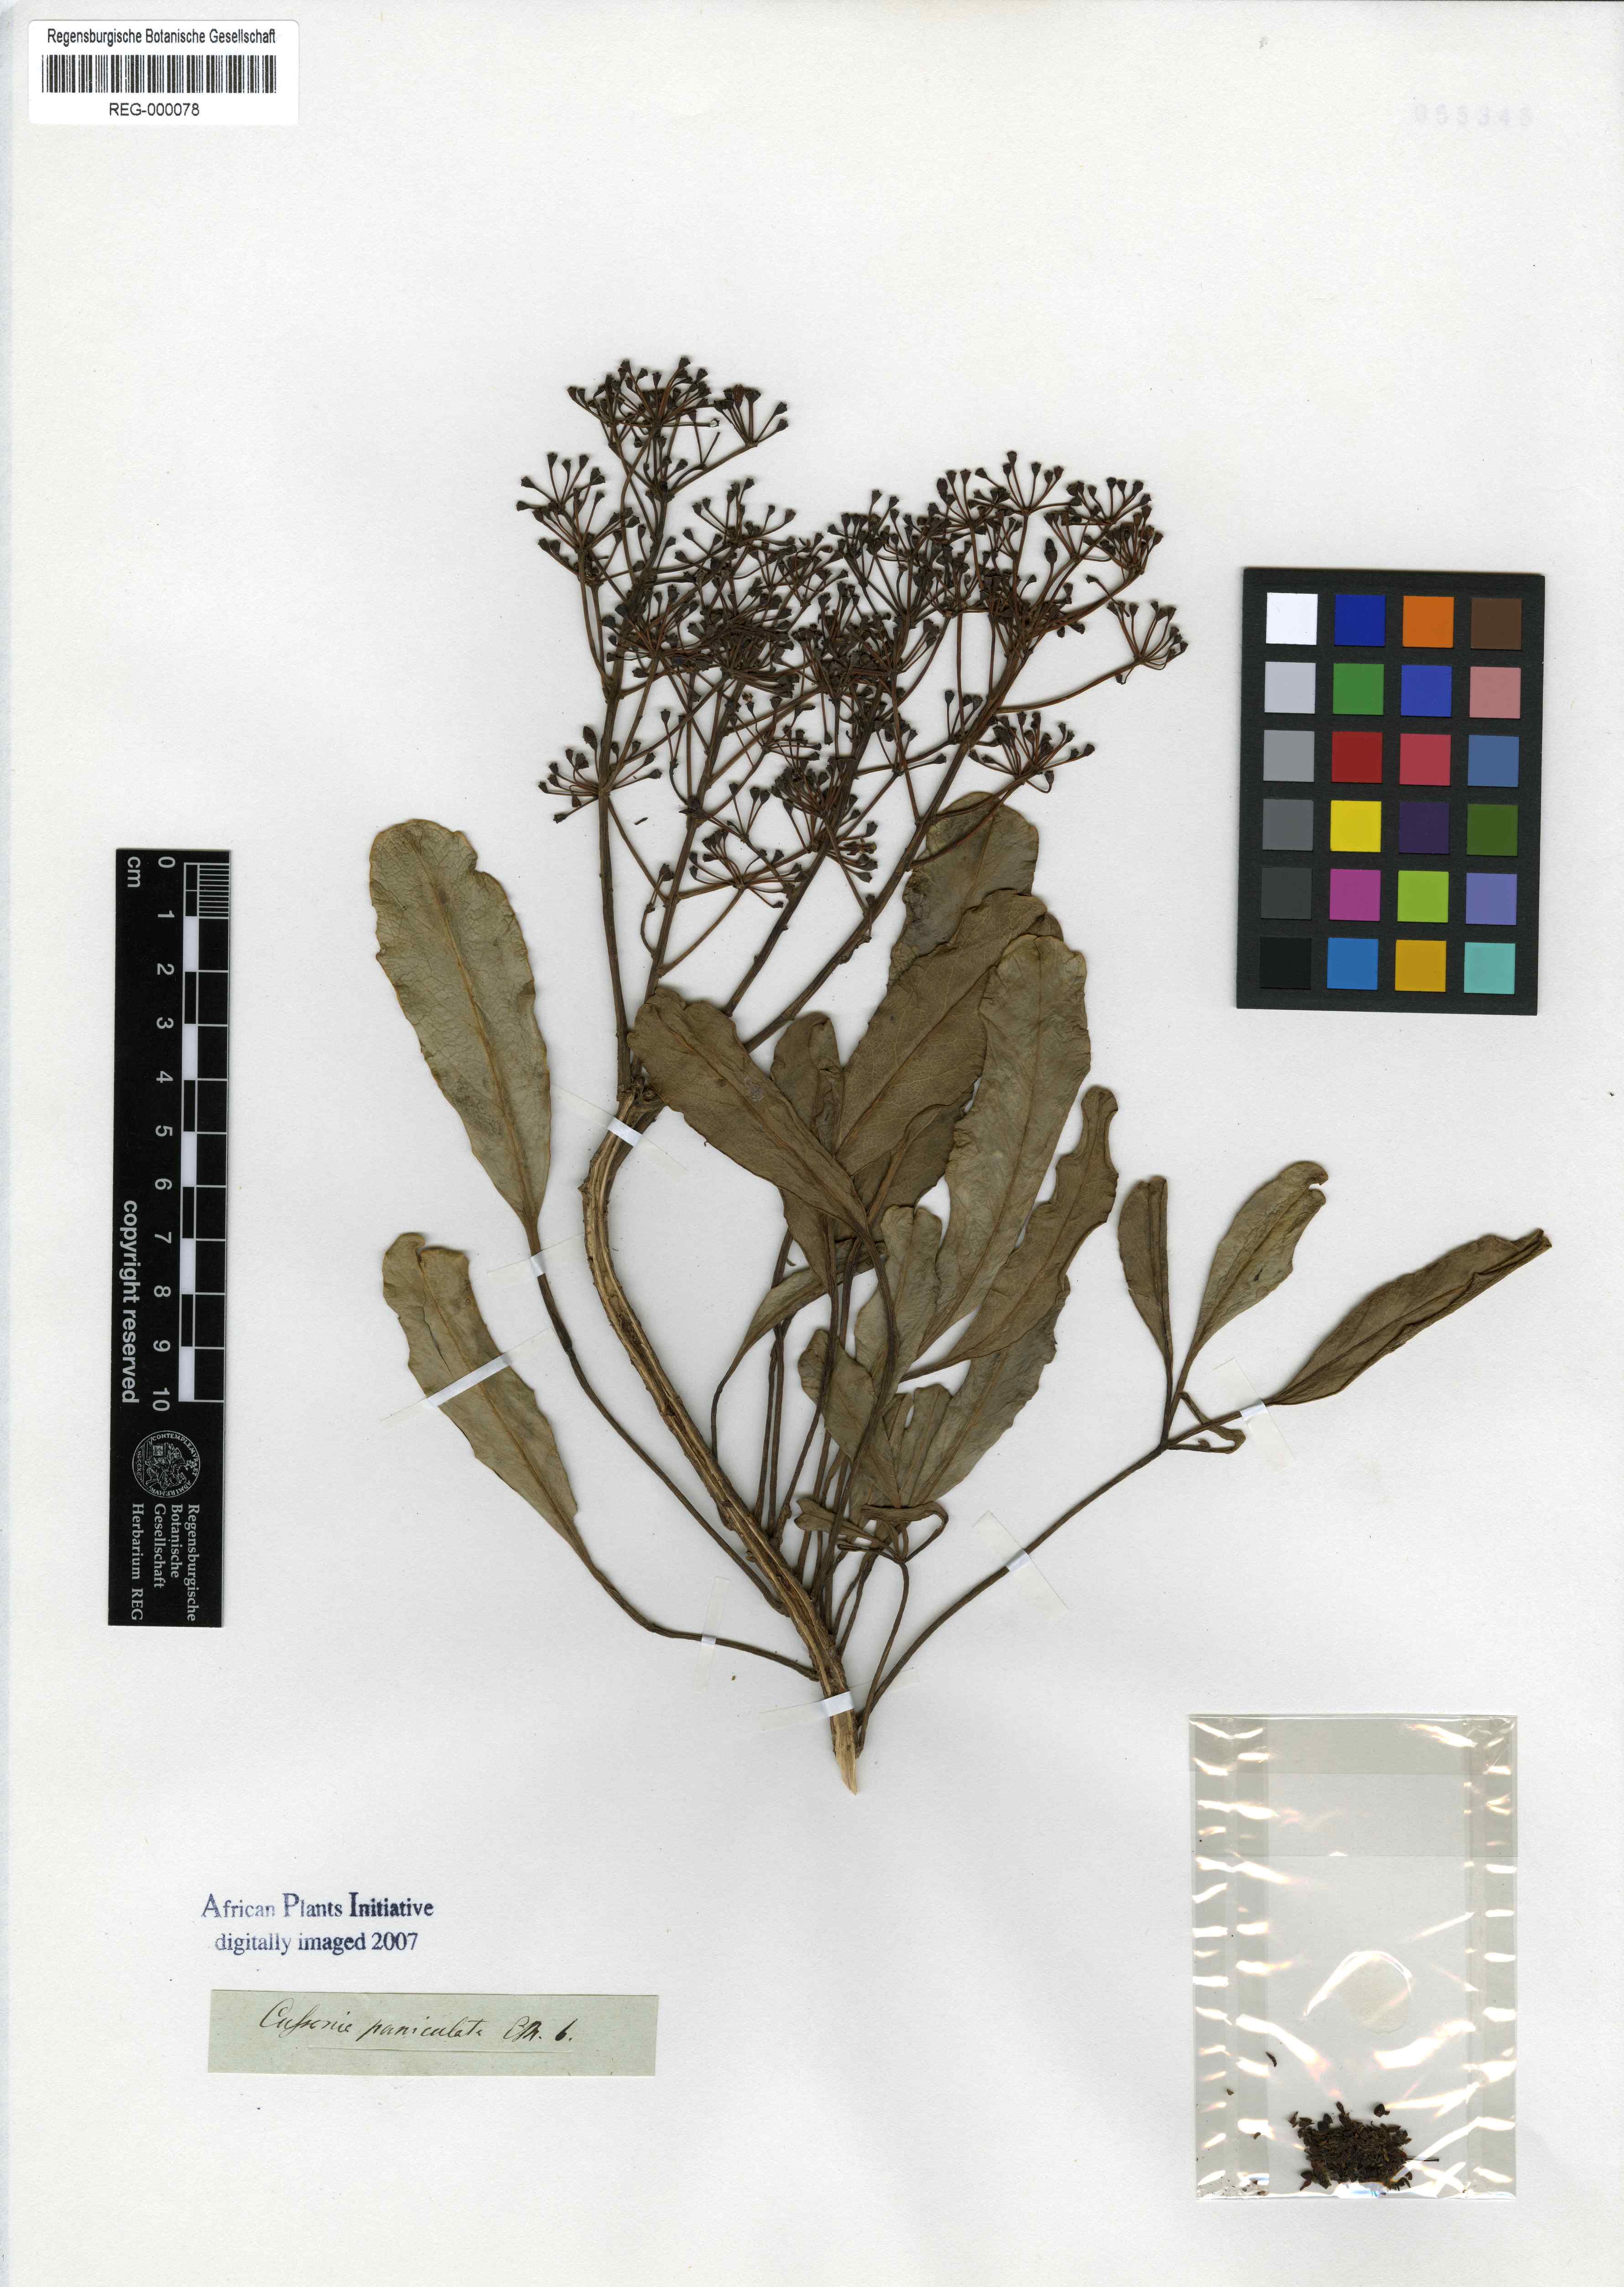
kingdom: Plantae
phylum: Tracheophyta
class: Magnoliopsida
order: Apiales
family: Araliaceae
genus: Cussonia
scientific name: Cussonia paniculata
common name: Cabbagetree
